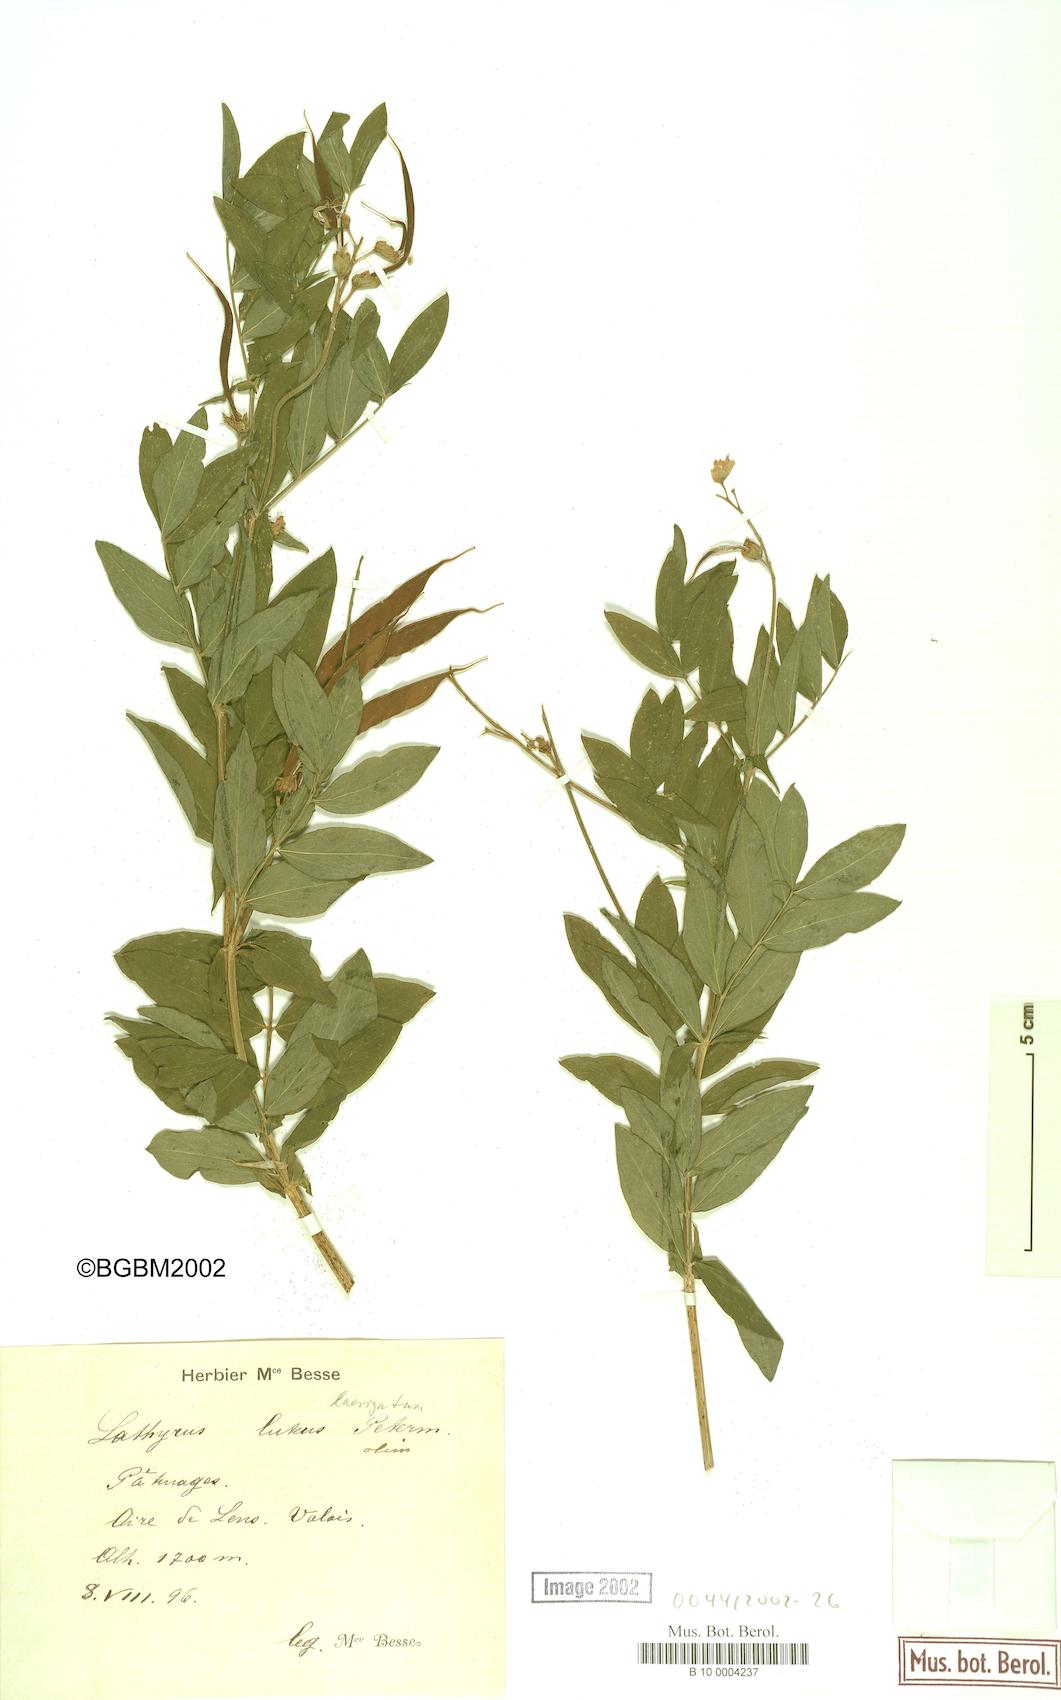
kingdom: Plantae
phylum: Tracheophyta
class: Magnoliopsida
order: Fabales
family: Fabaceae
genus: Lathyrus
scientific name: Lathyrus gmelinii
